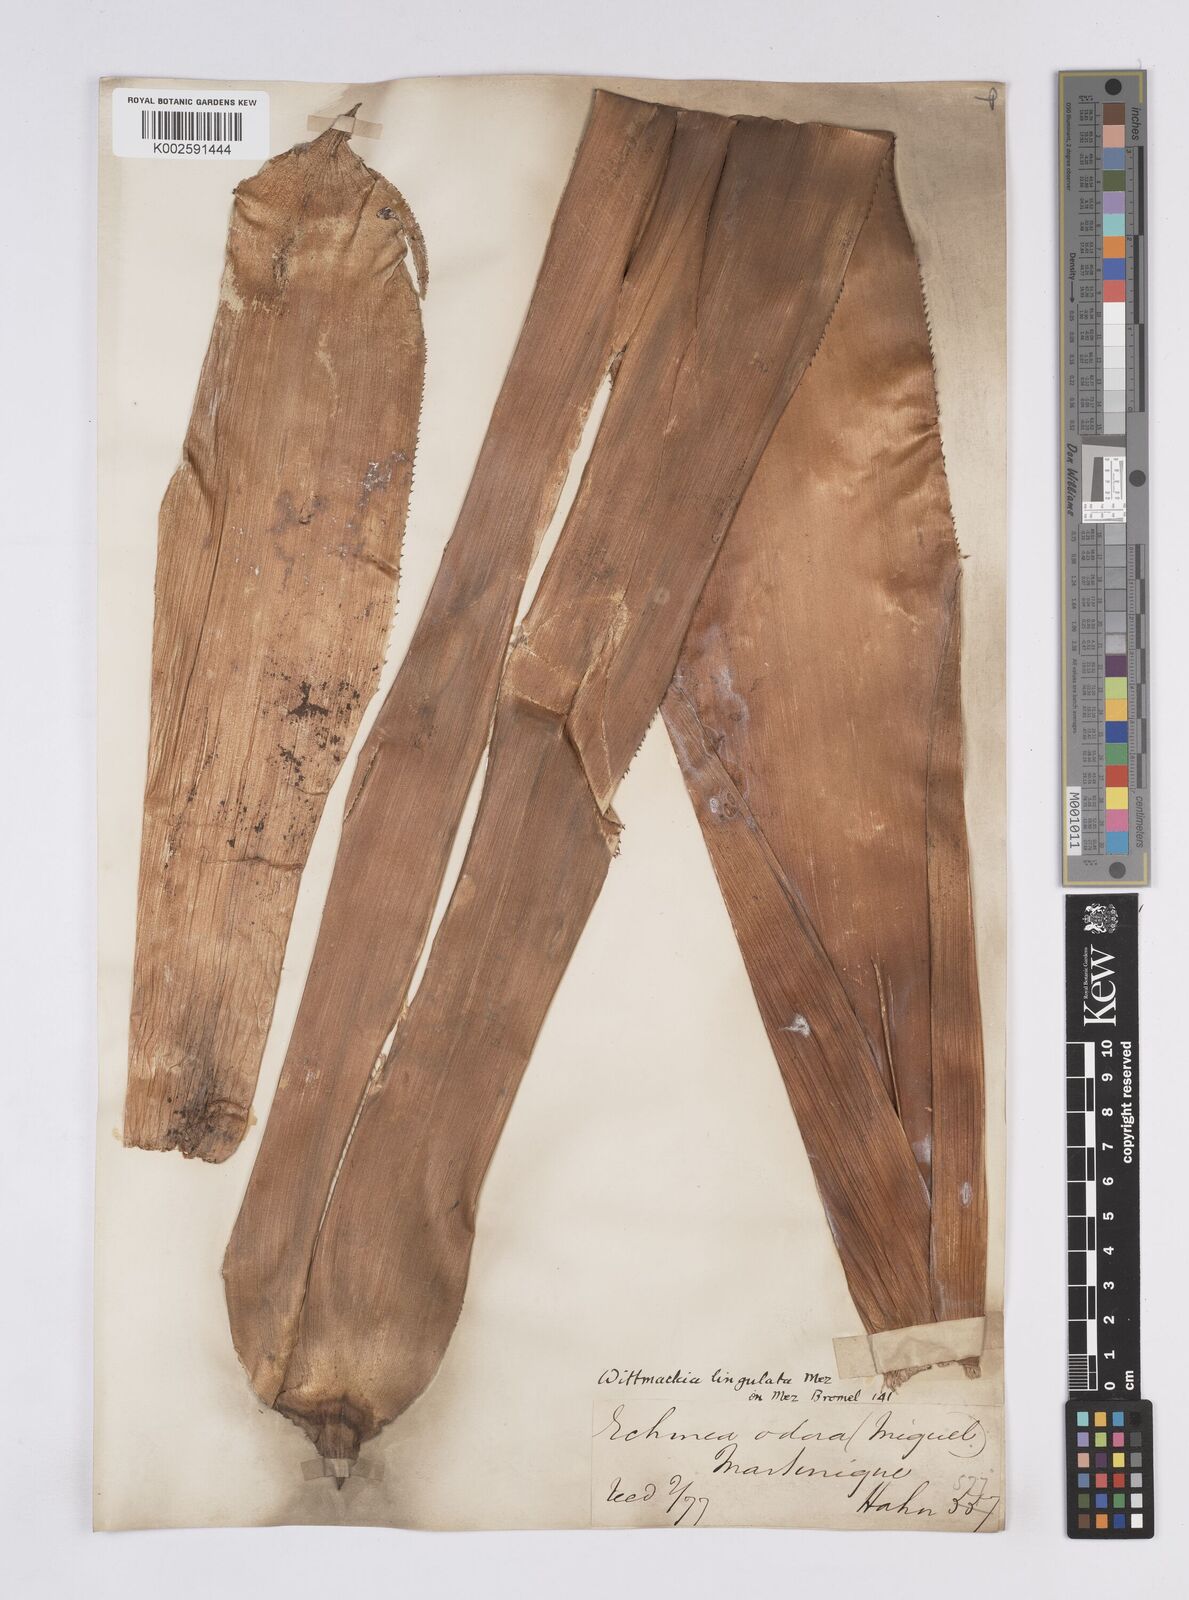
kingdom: Plantae
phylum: Tracheophyta
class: Liliopsida
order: Poales
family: Bromeliaceae
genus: Wittmackia
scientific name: Wittmackia lingulata
